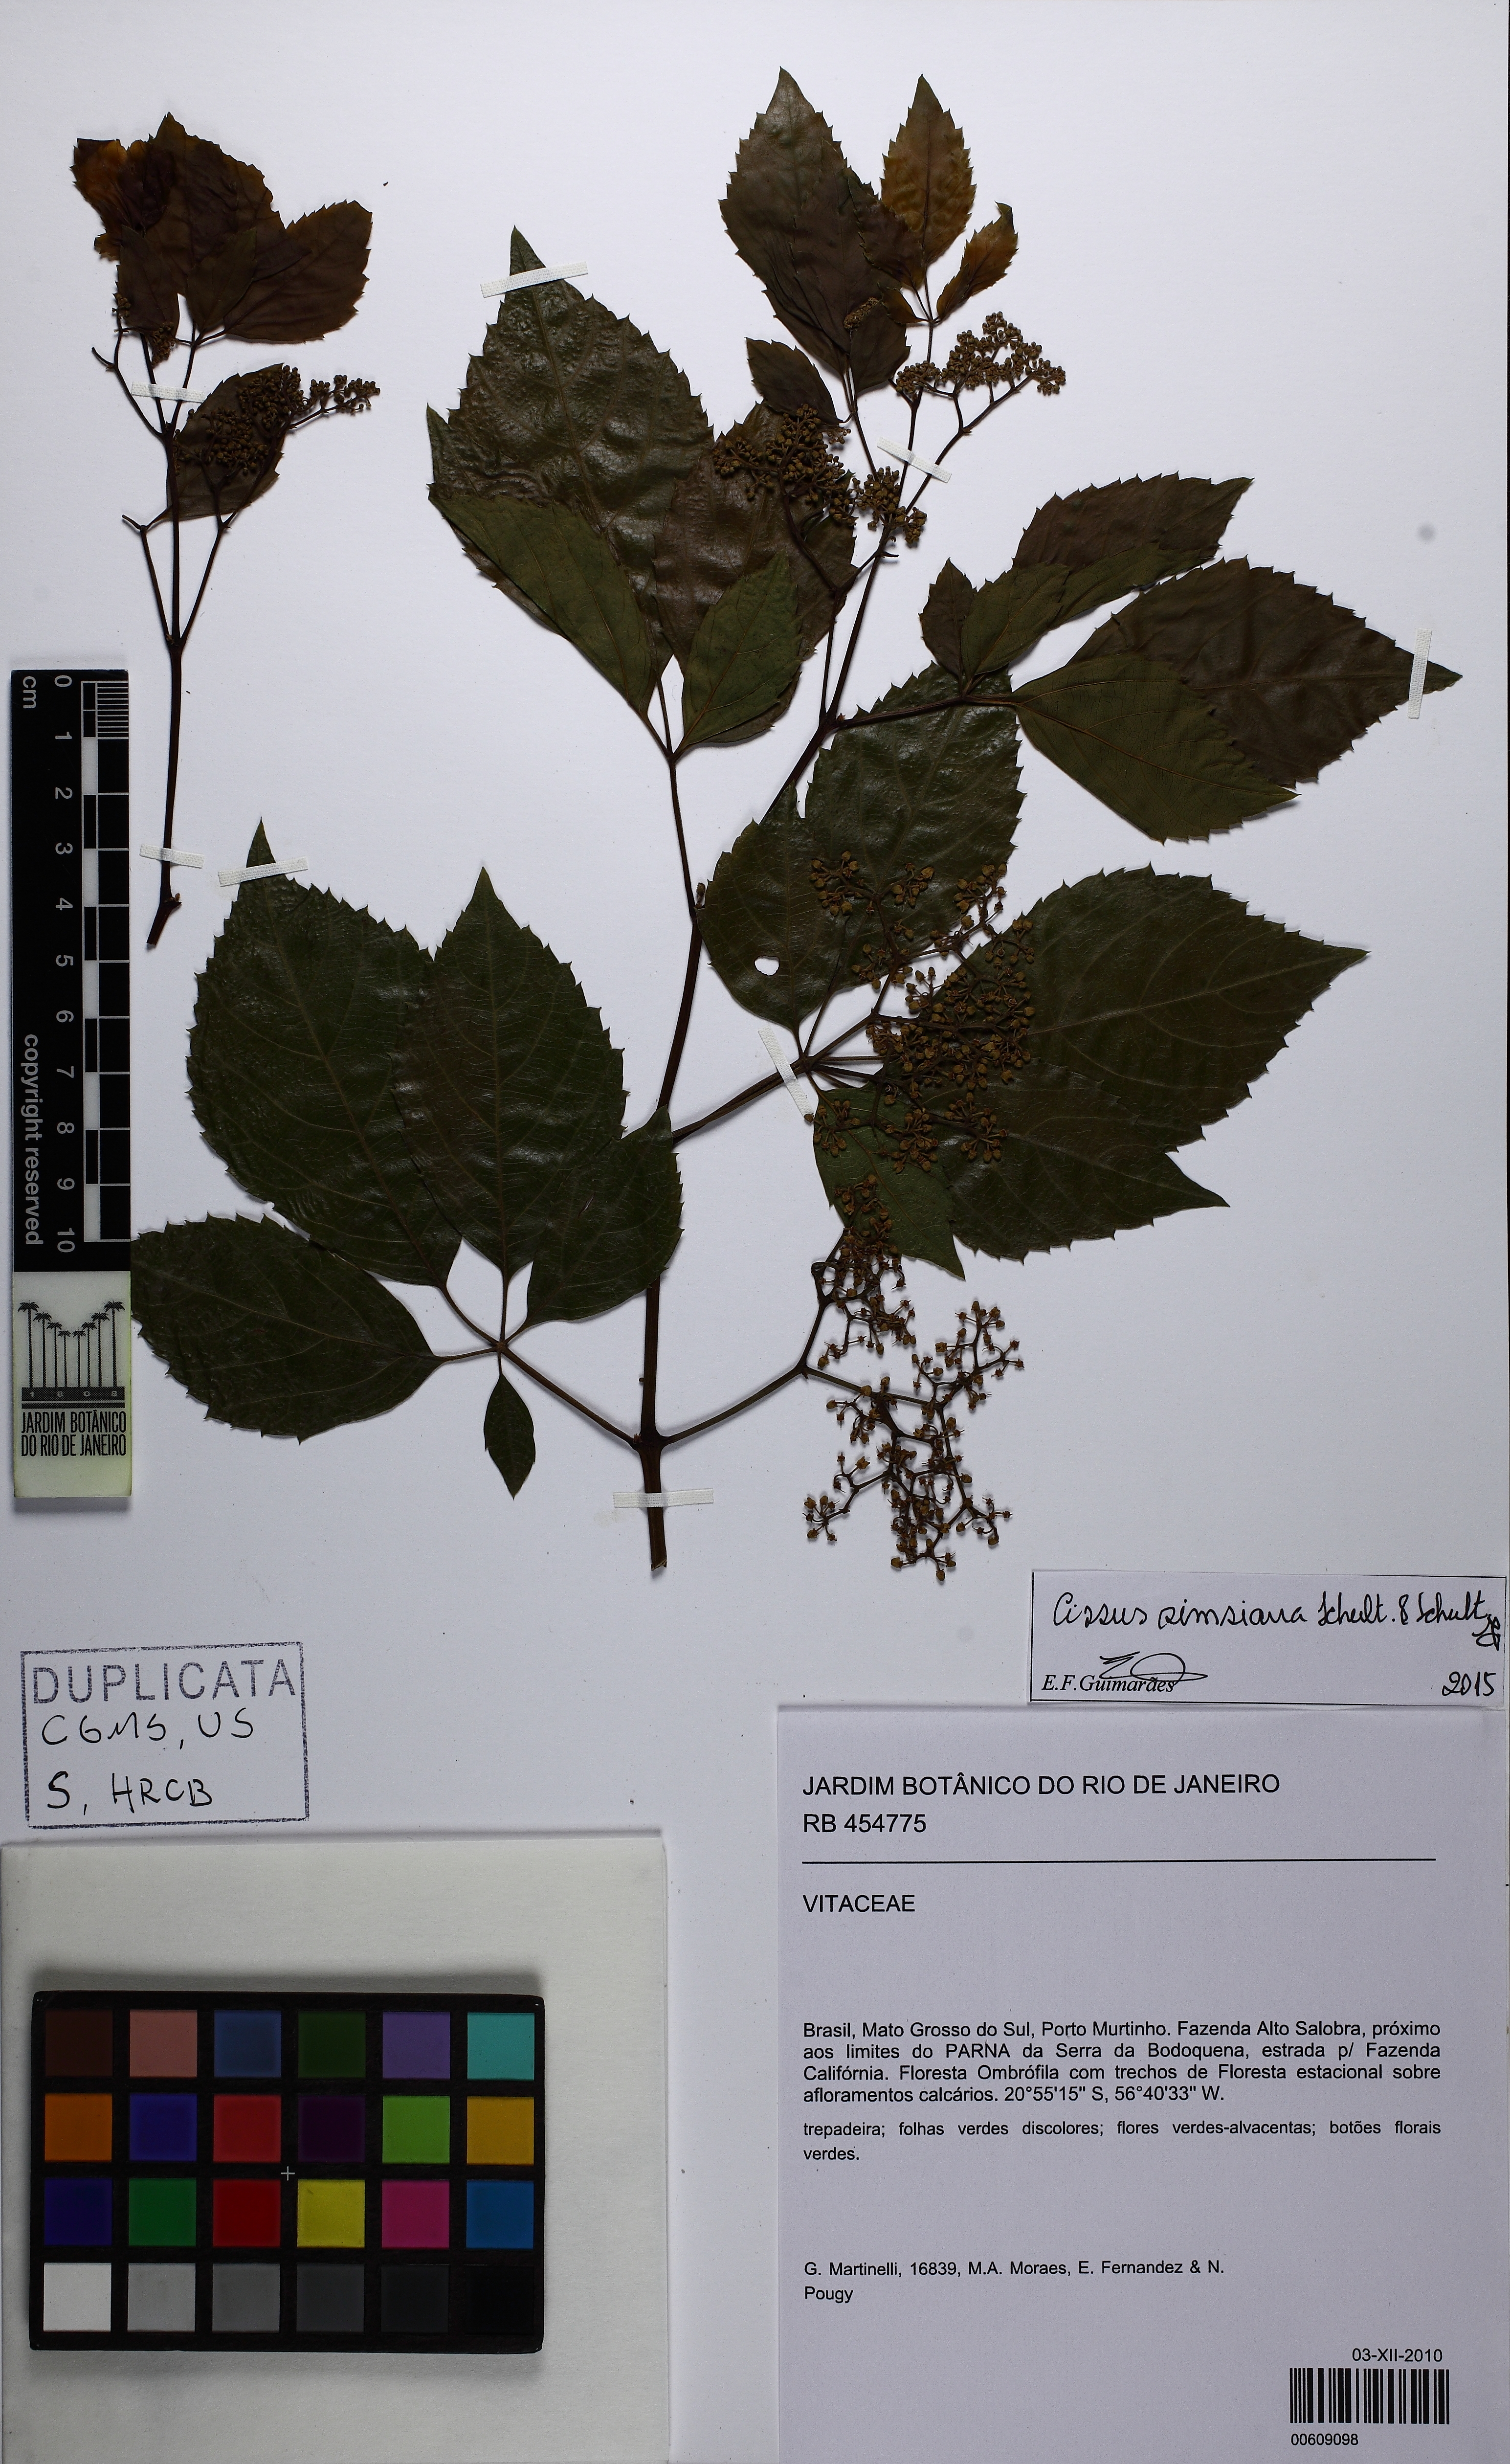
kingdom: Plantae
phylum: Tracheophyta
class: Magnoliopsida
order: Vitales
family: Vitaceae
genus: Clematicissus
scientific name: Clematicissus simsiana
